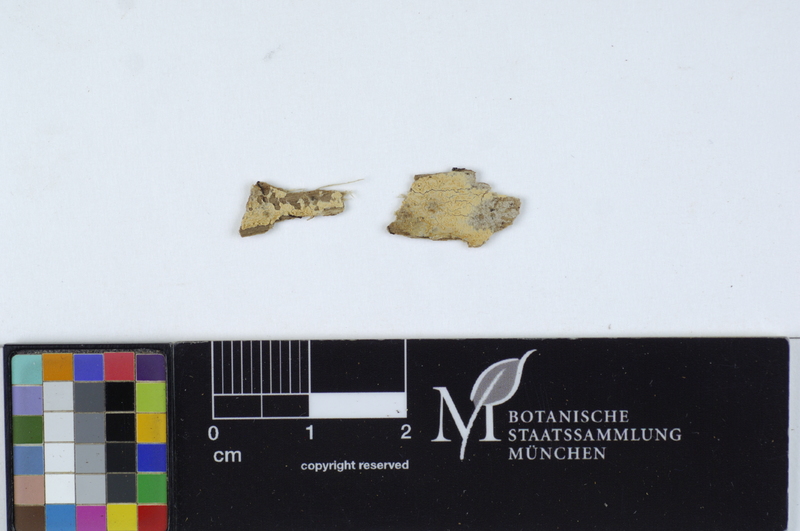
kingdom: Fungi
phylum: Basidiomycota
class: Agaricomycetes
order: Agaricales
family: Stephanosporaceae
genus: Cristinia
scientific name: Cristinia eichleri
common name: Dentists' bane
